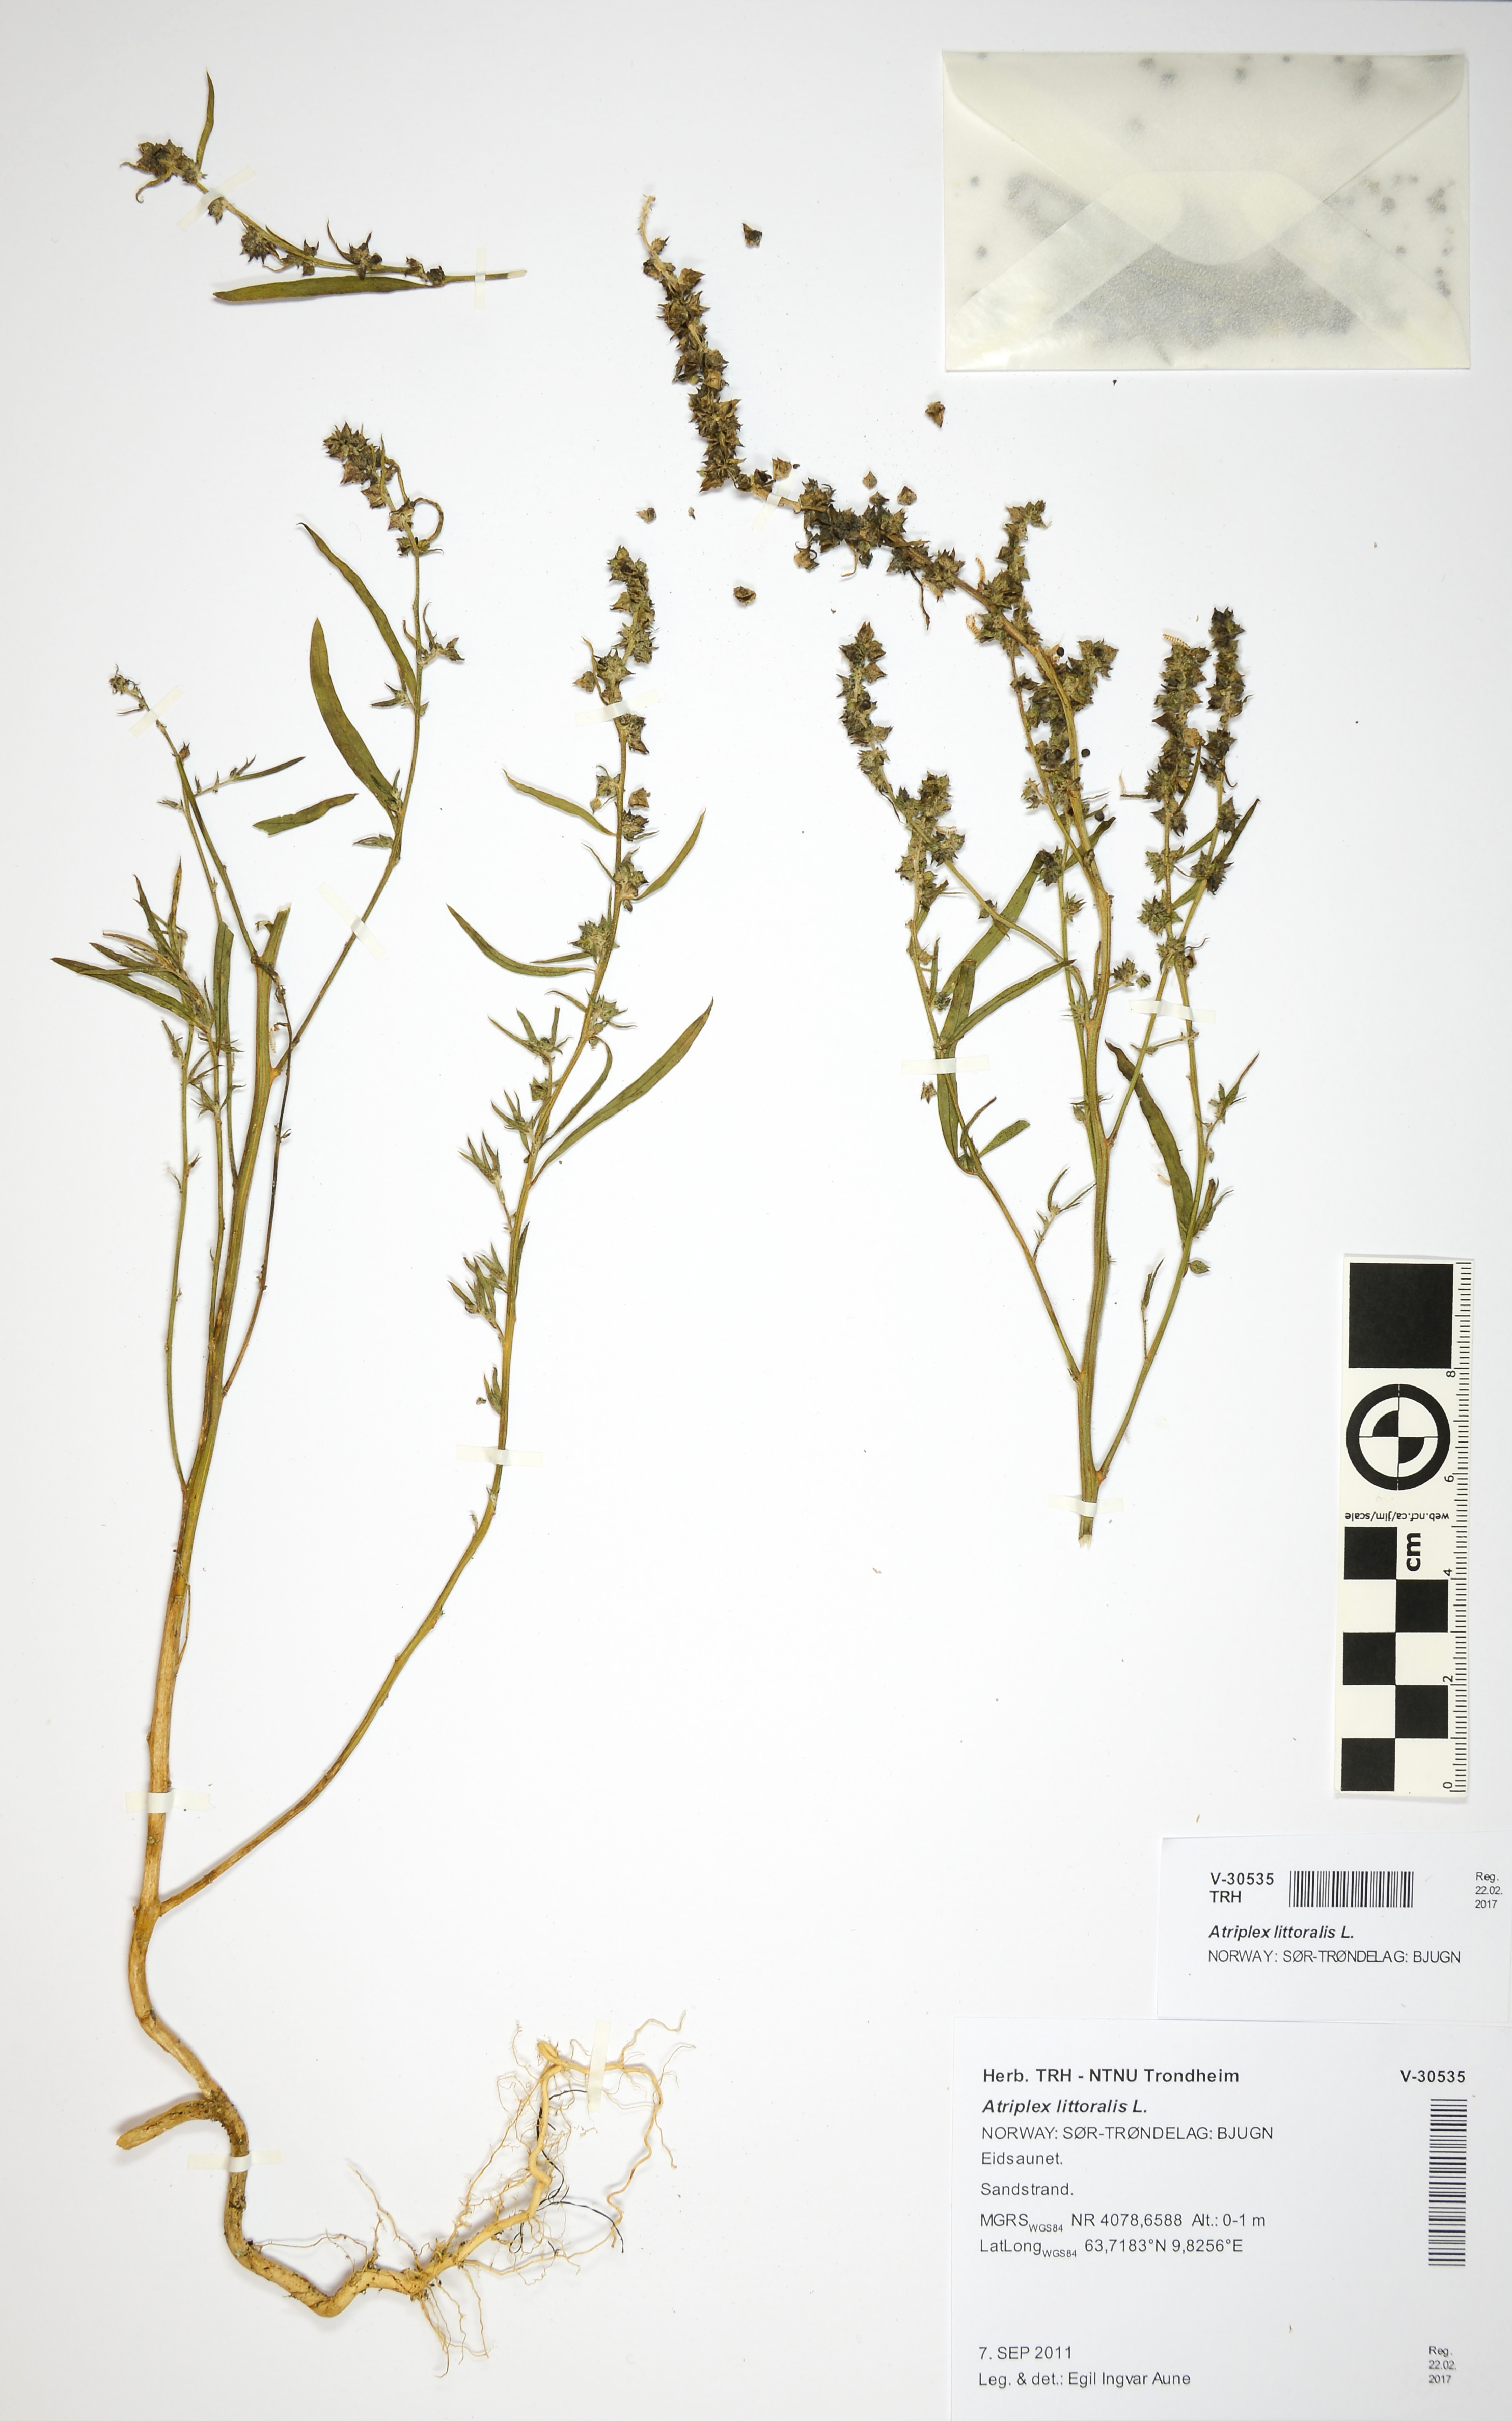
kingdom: Plantae
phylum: Tracheophyta
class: Magnoliopsida
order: Caryophyllales
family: Amaranthaceae
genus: Atriplex
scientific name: Atriplex littoralis
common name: Grass-leaved orache
